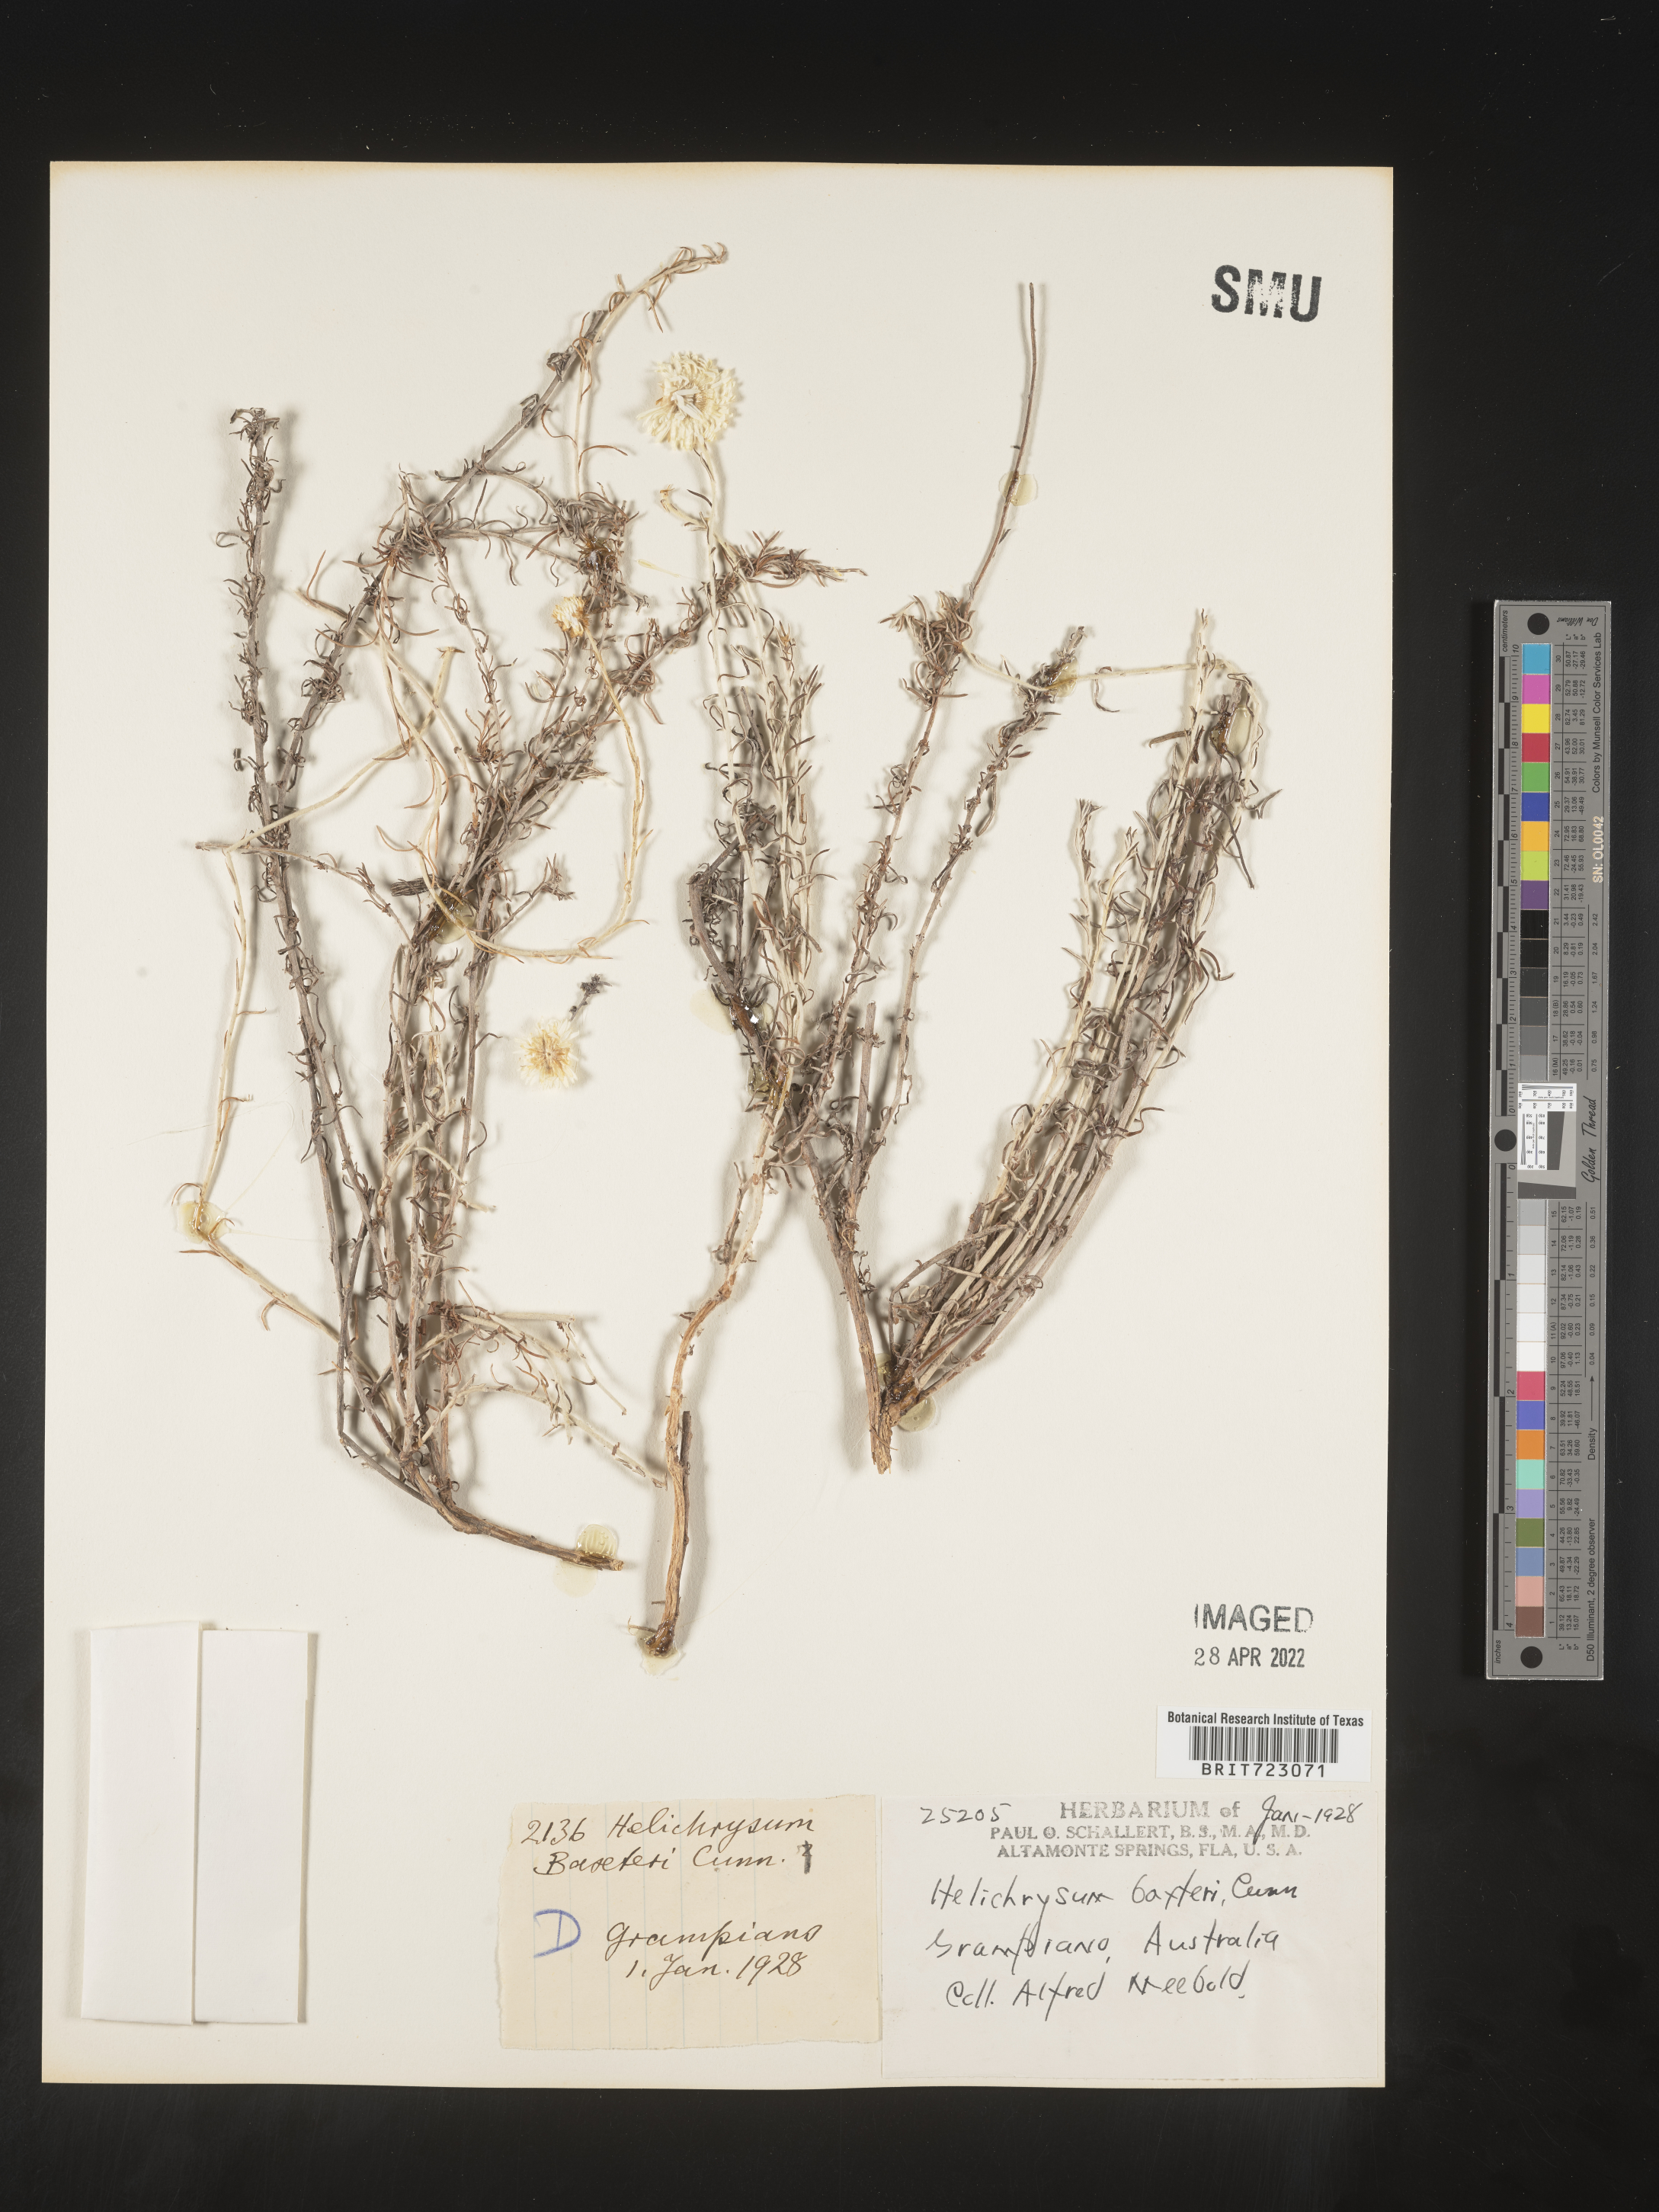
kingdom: Plantae
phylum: Tracheophyta
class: Magnoliopsida
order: Asterales
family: Asteraceae
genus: Helichrysum
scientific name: Helichrysum
